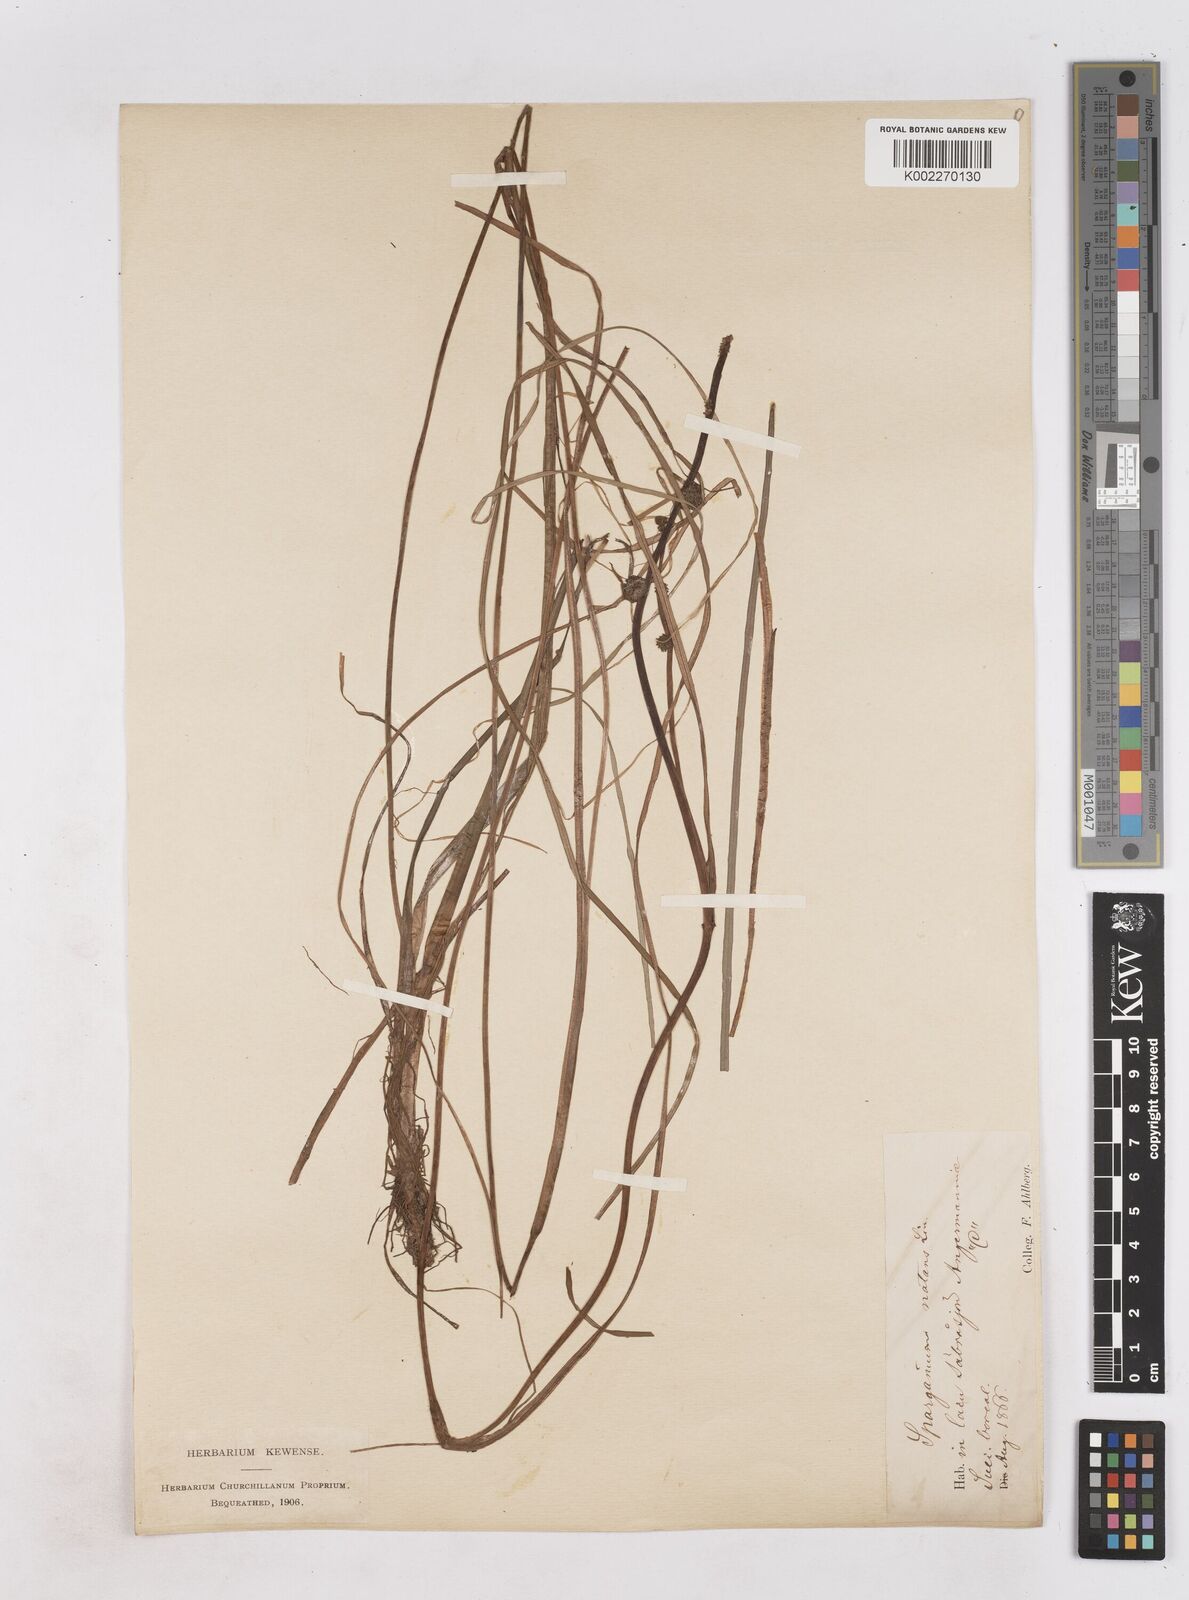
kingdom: Plantae
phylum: Tracheophyta
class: Liliopsida
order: Poales
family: Typhaceae
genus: Sparganium
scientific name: Sparganium natans
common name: Least bur-reed
